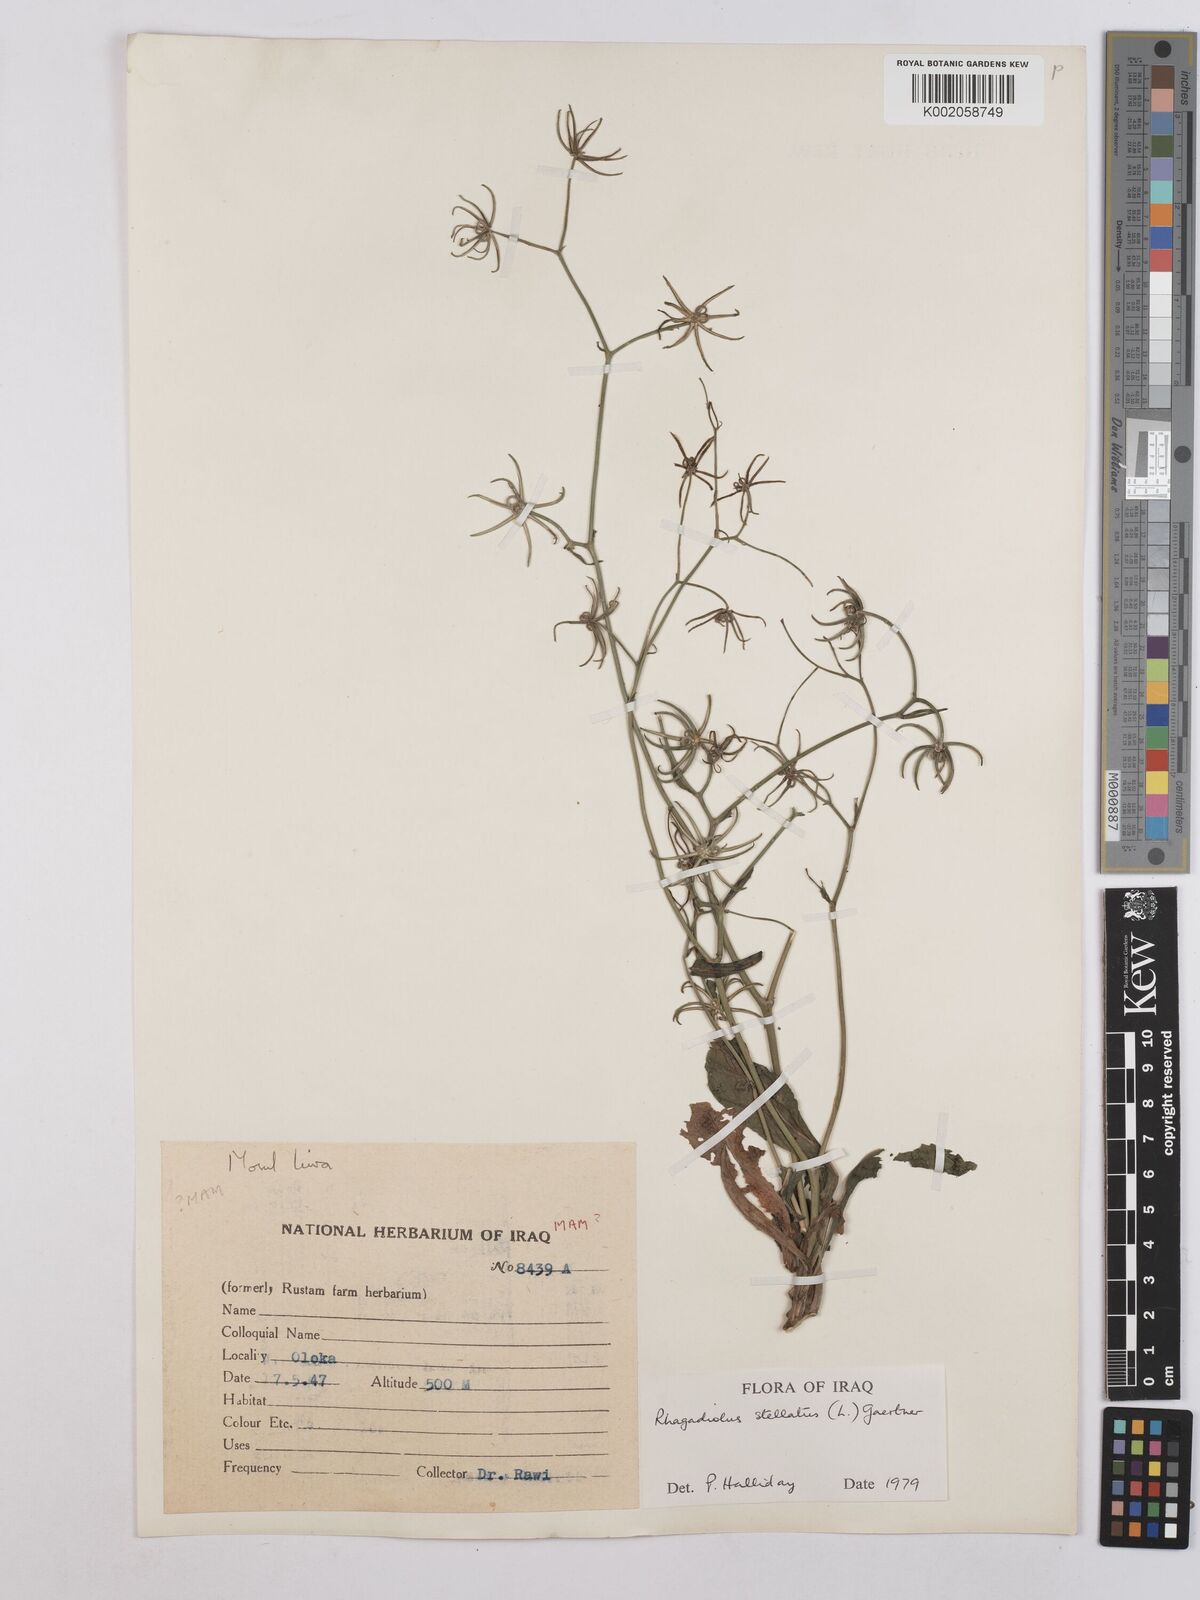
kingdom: Plantae
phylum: Tracheophyta
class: Magnoliopsida
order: Asterales
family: Asteraceae
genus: Rhagadiolus
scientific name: Rhagadiolus stellatus
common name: Star hawkbit
